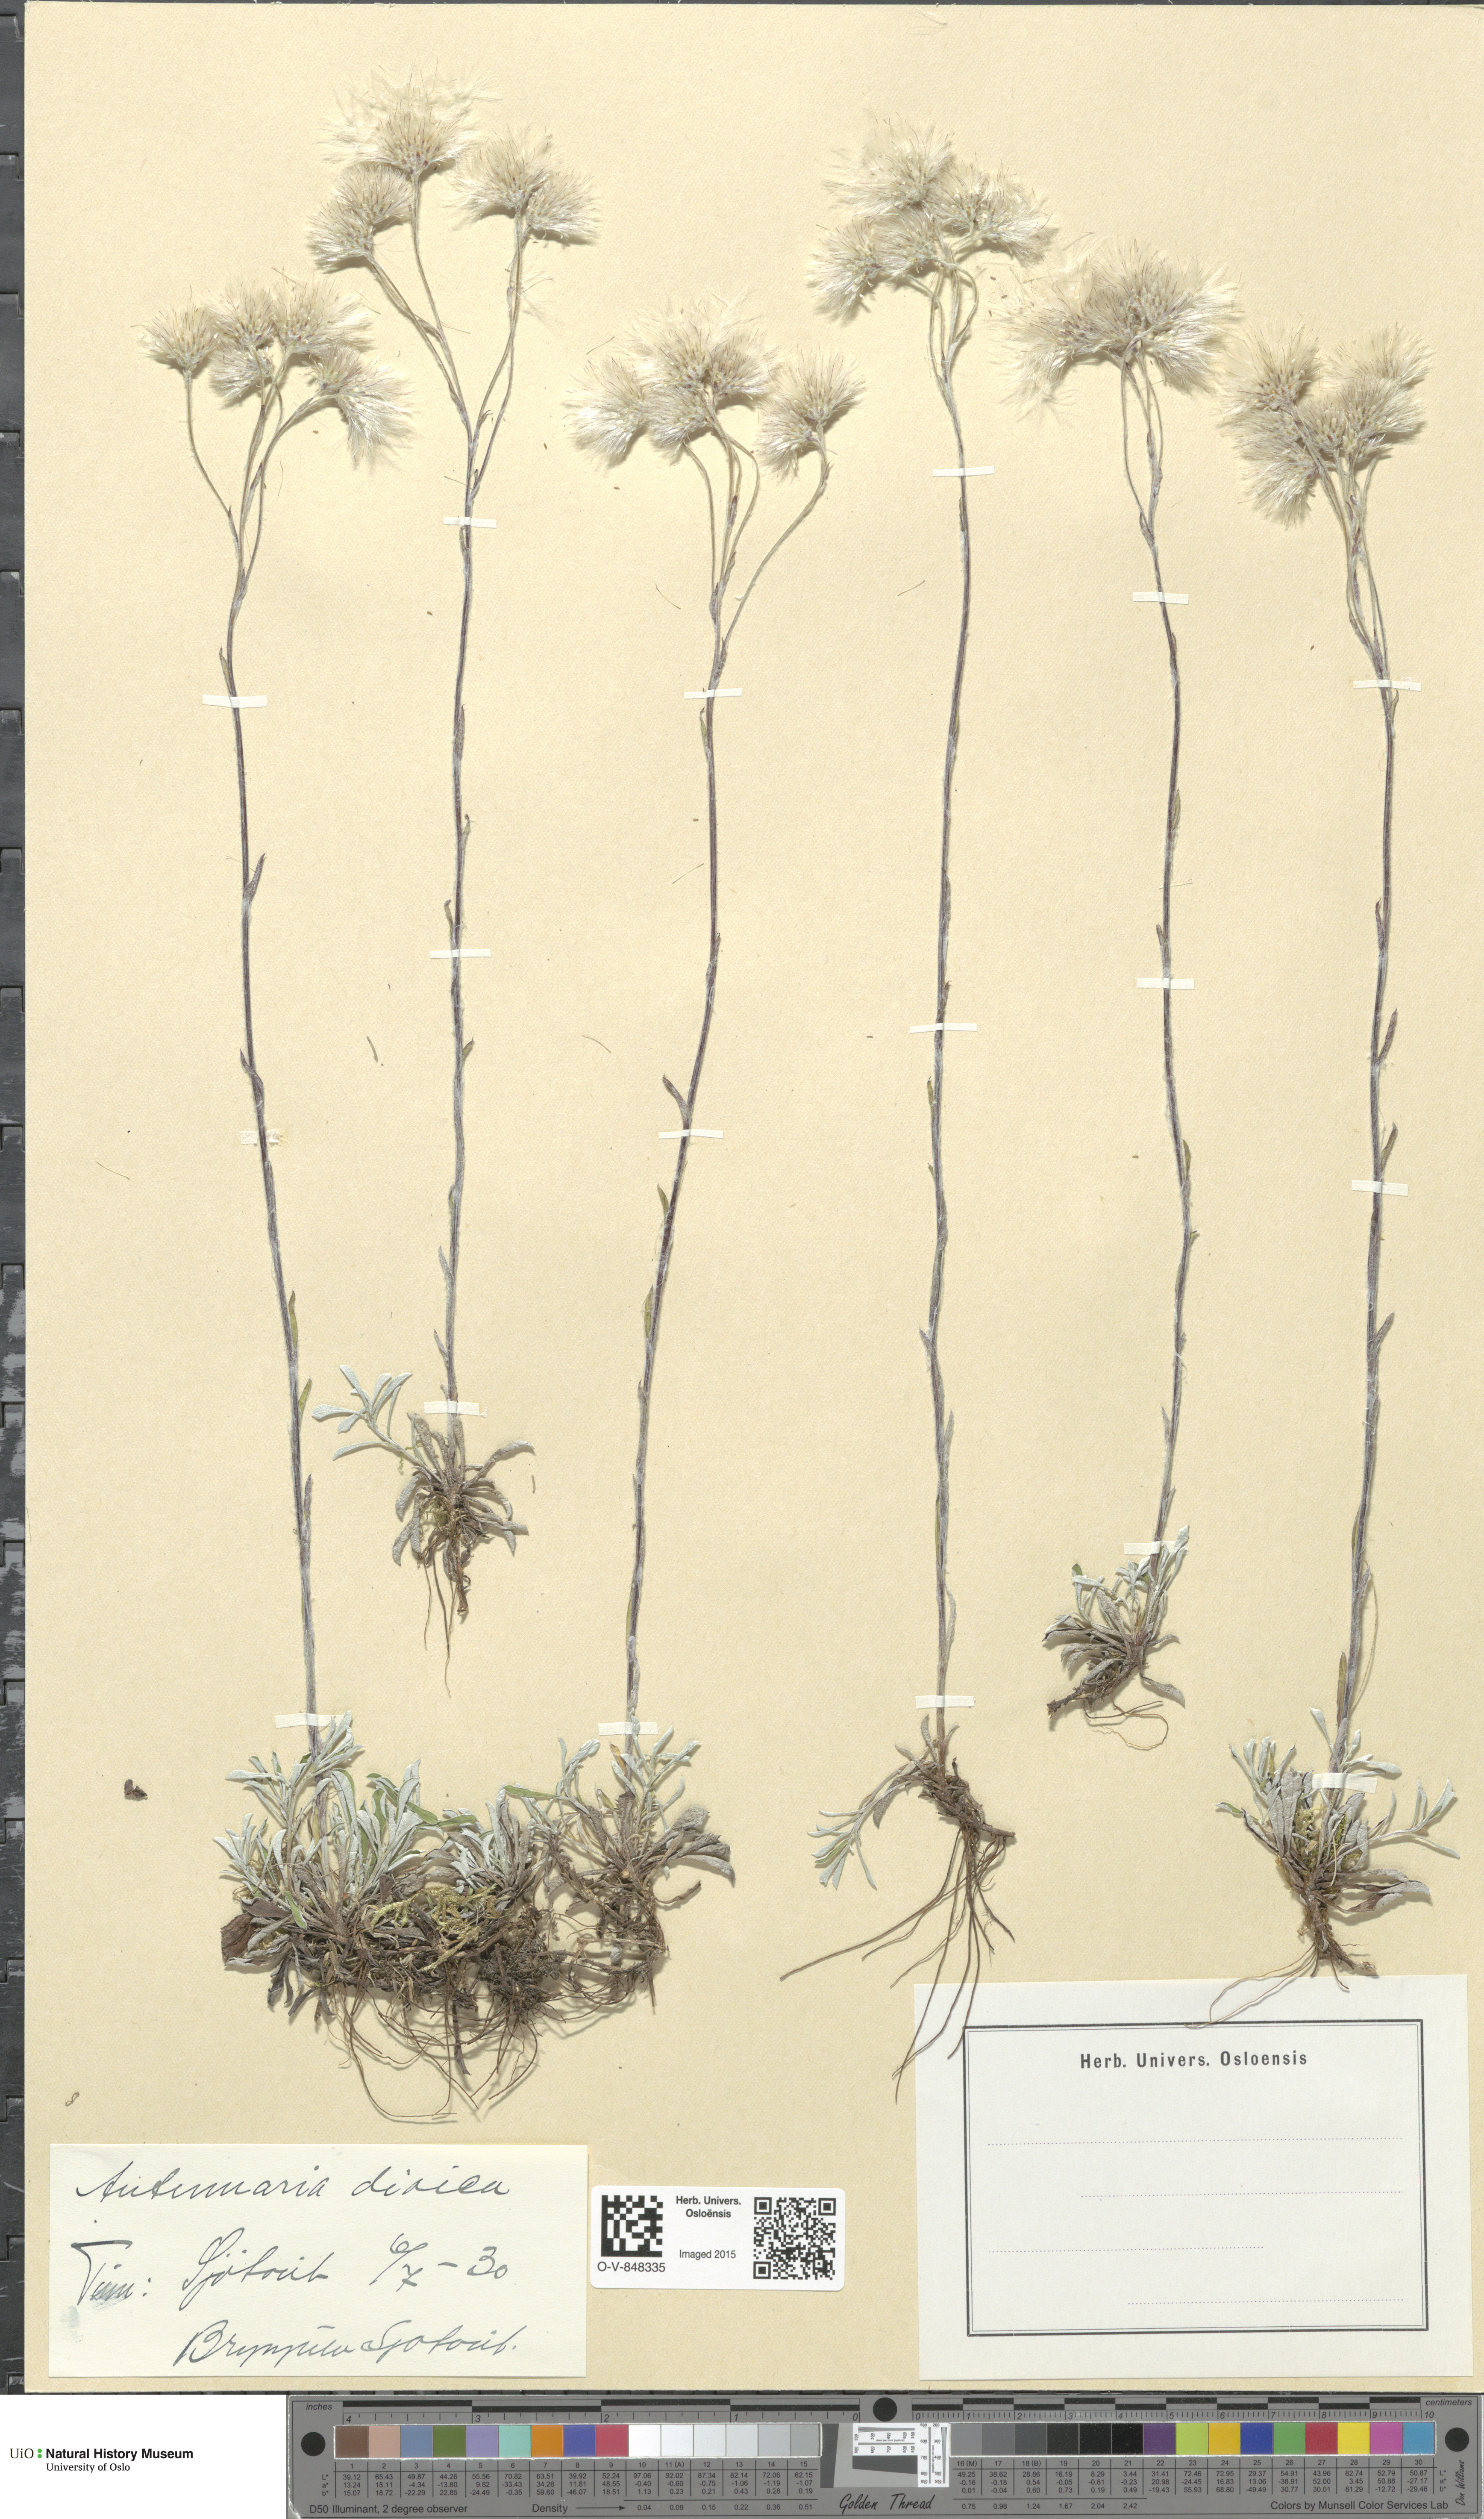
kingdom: Plantae
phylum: Tracheophyta
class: Magnoliopsida
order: Asterales
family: Asteraceae
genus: Antennaria
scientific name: Antennaria dioica
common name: Mountain everlasting
